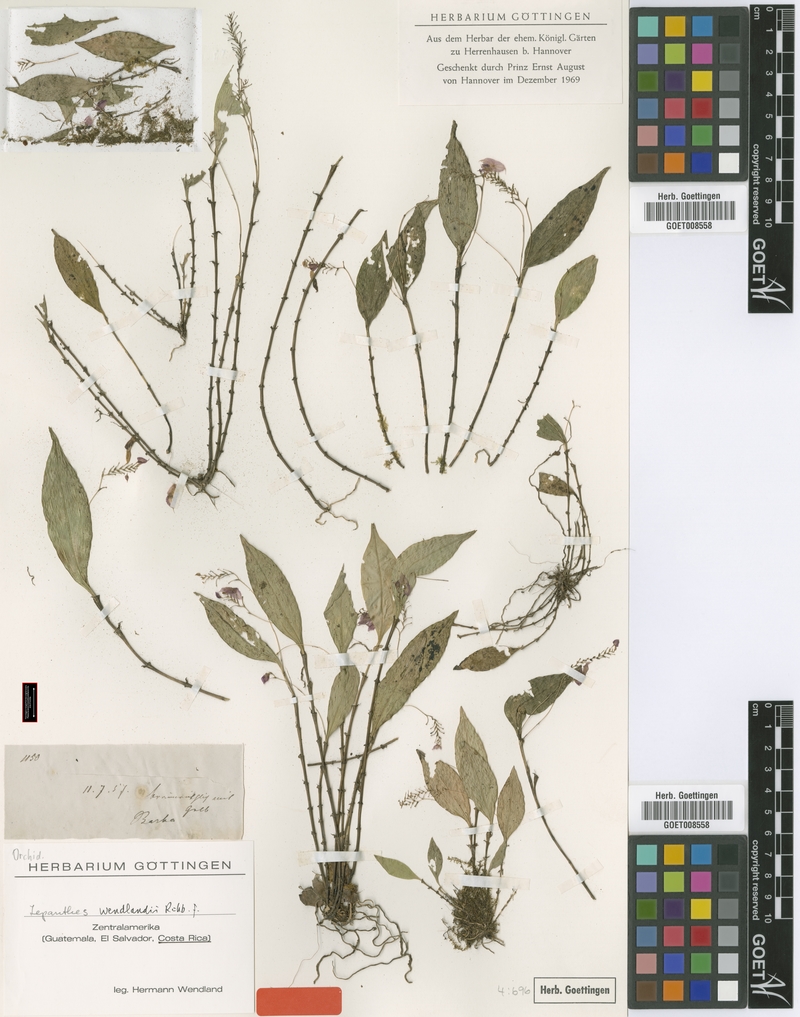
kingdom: Plantae
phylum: Tracheophyta
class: Liliopsida
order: Asparagales
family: Orchidaceae
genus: Lepanthes
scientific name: Lepanthes wendlandii
